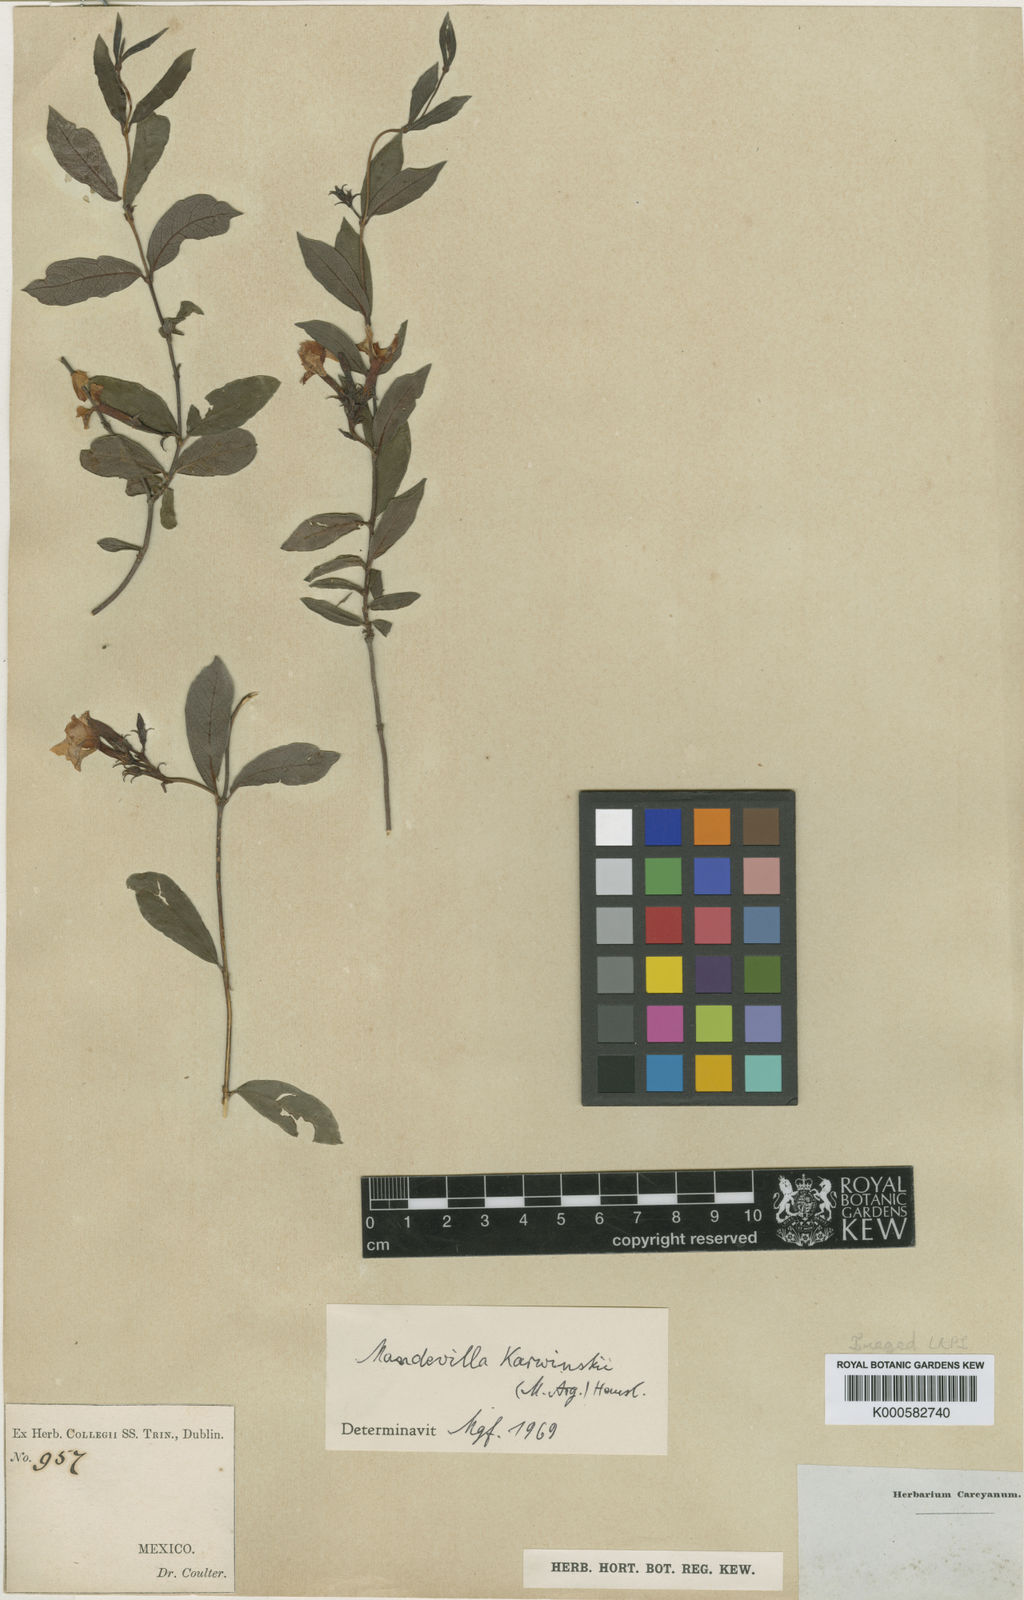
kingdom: Plantae
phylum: Tracheophyta
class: Magnoliopsida
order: Gentianales
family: Apocynaceae
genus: Mandevilla
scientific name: Mandevilla karwinskii
